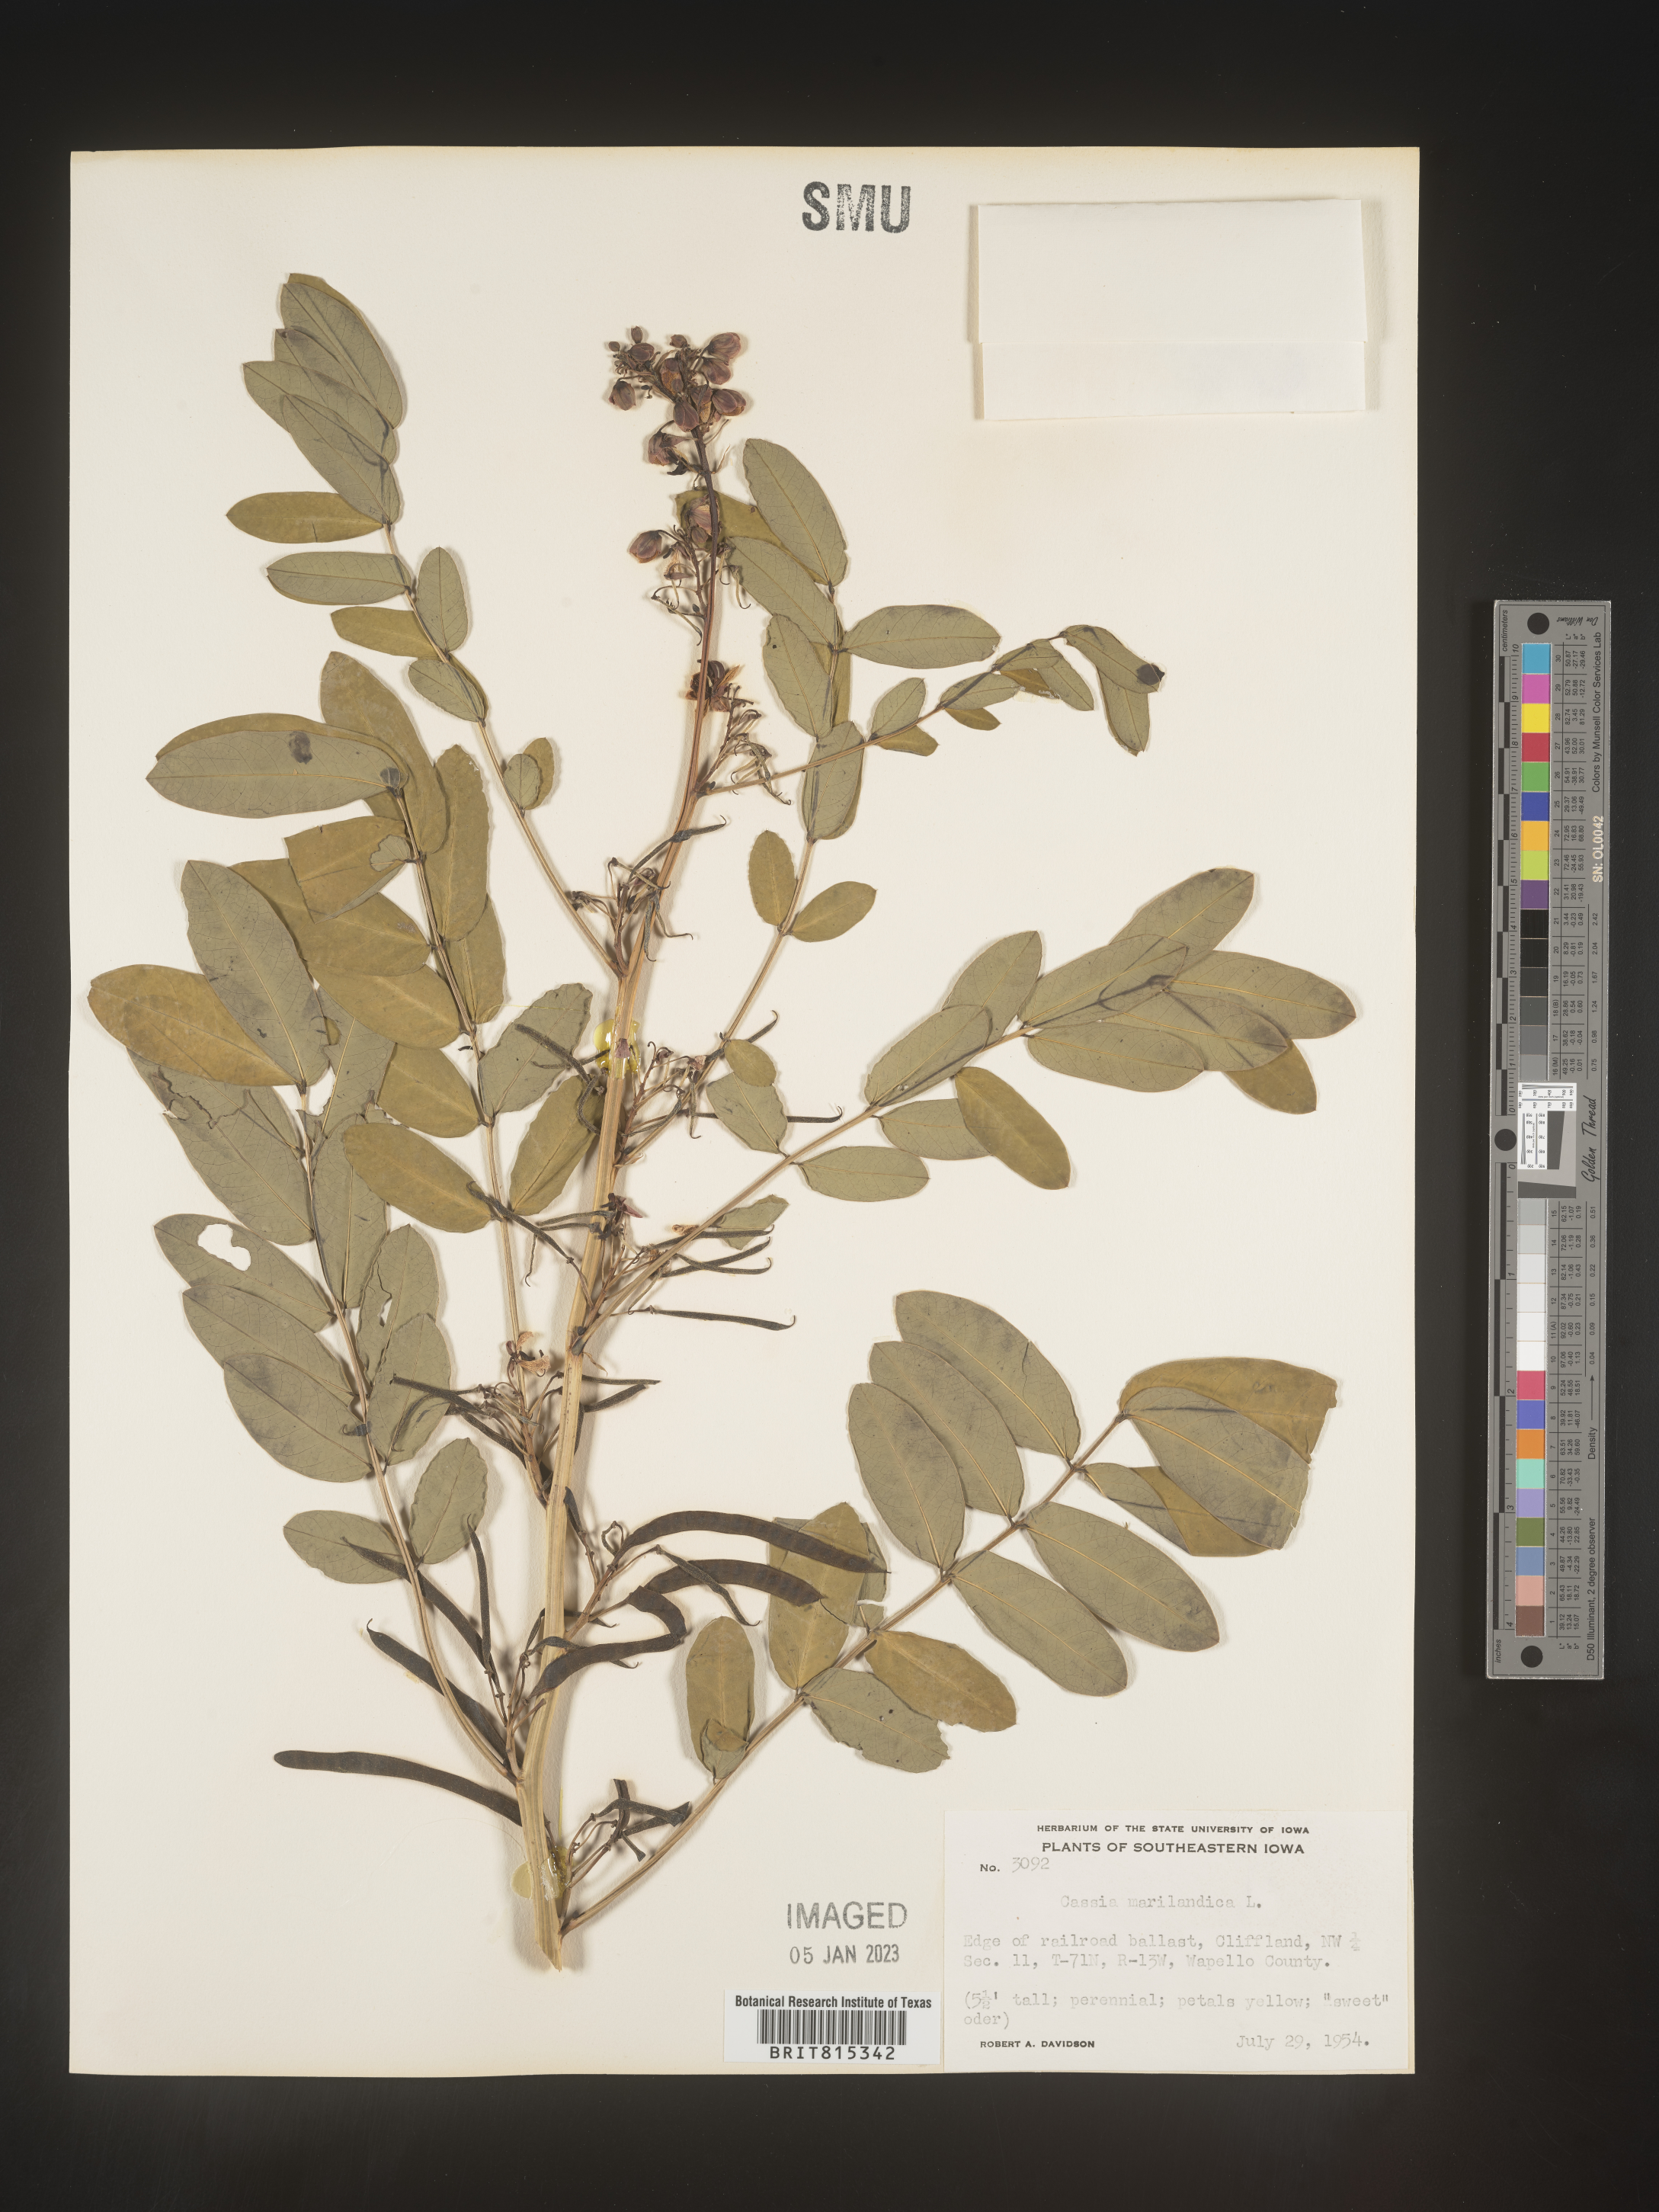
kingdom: Plantae
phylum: Tracheophyta
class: Magnoliopsida
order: Fabales
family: Fabaceae
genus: Senna
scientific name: Senna marilandica
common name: American senna
